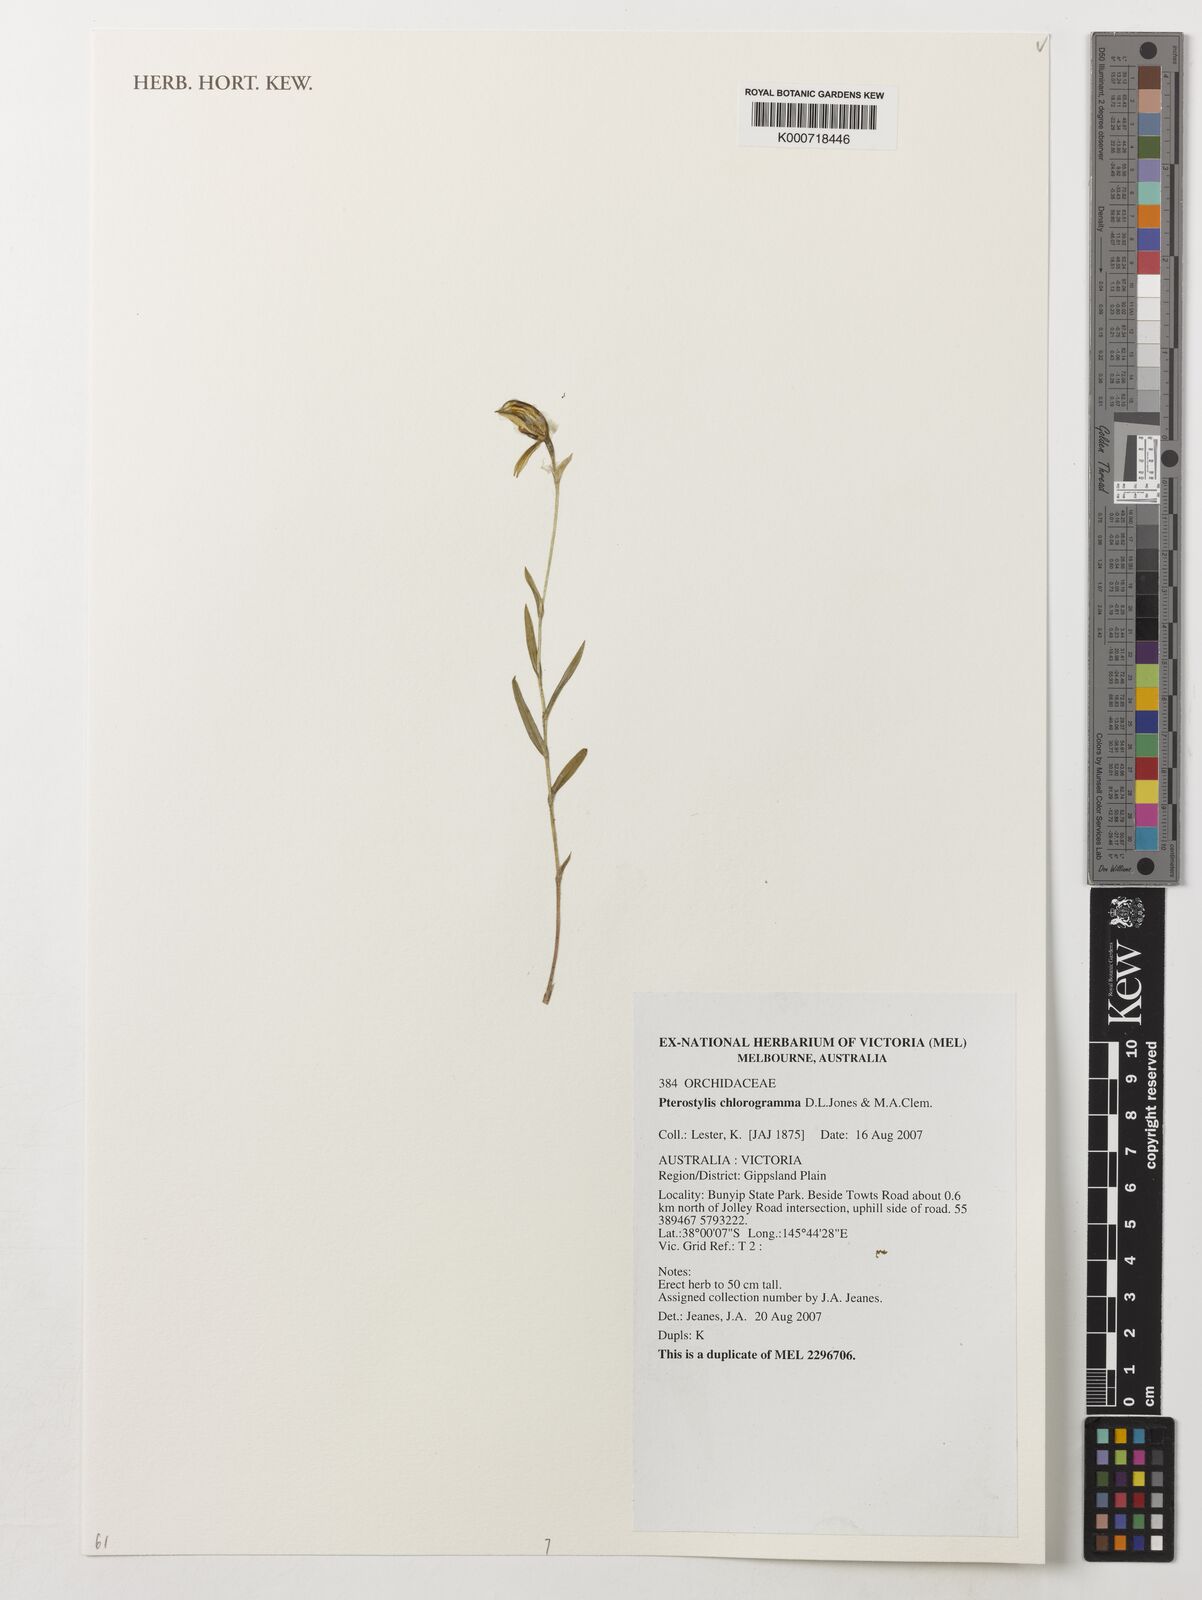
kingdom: Plantae
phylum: Tracheophyta
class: Liliopsida
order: Asparagales
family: Orchidaceae
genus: Pterostylis
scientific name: Pterostylis chlorogramma
